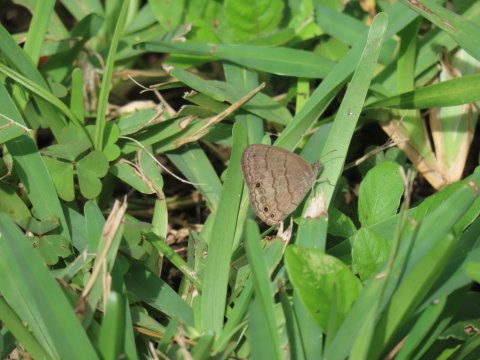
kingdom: Animalia
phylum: Arthropoda
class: Insecta
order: Lepidoptera
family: Nymphalidae
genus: Hermeuptychia
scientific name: Hermeuptychia hermes
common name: Carolina Satyr
